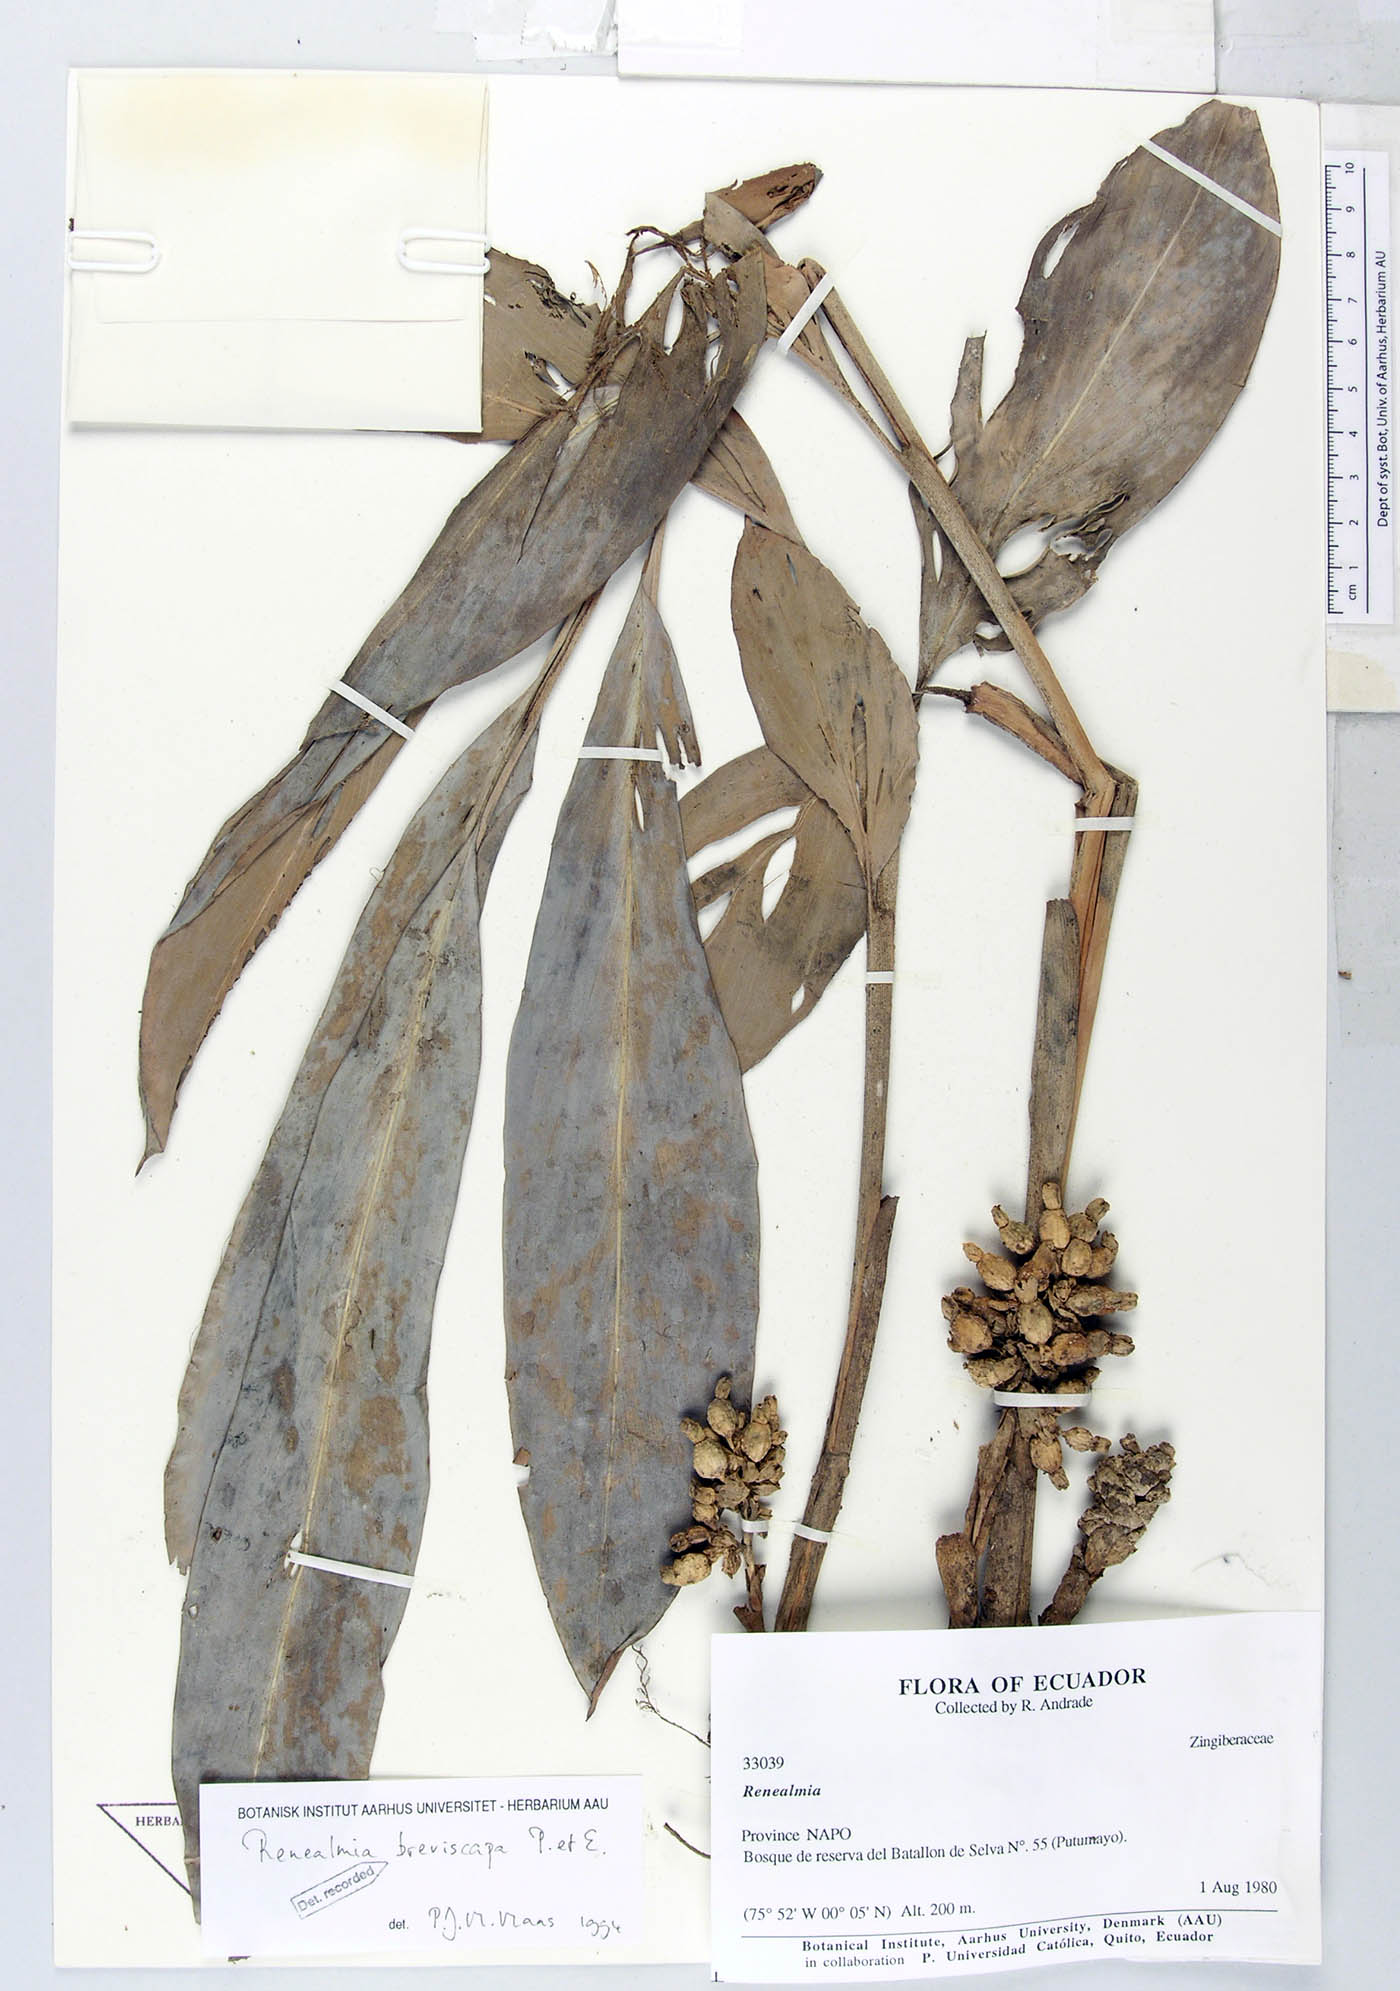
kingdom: Plantae
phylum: Tracheophyta
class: Liliopsida
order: Zingiberales
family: Zingiberaceae
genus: Renealmia
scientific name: Renealmia breviscapa
